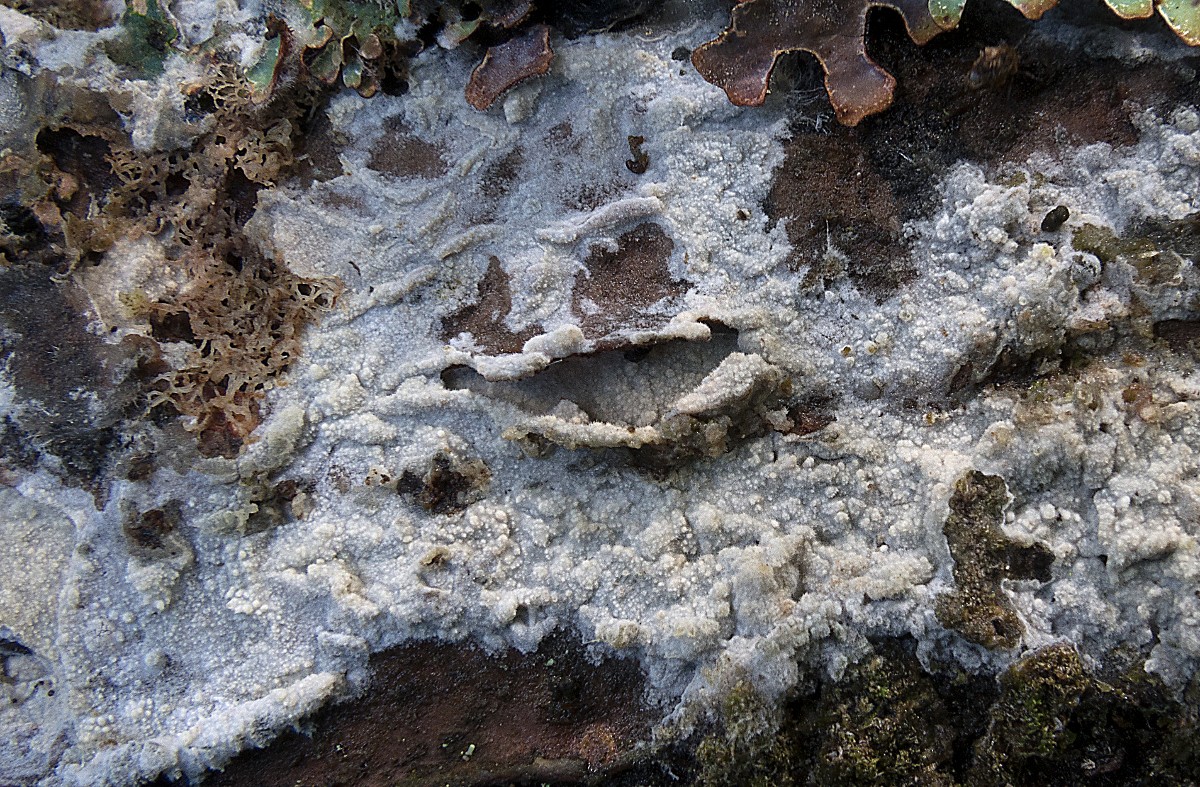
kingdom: Fungi
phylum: Basidiomycota
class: Agaricomycetes
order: Polyporales
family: Hyphodermataceae
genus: Hyphoderma
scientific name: Hyphoderma setigerum
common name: håret kalkskind
